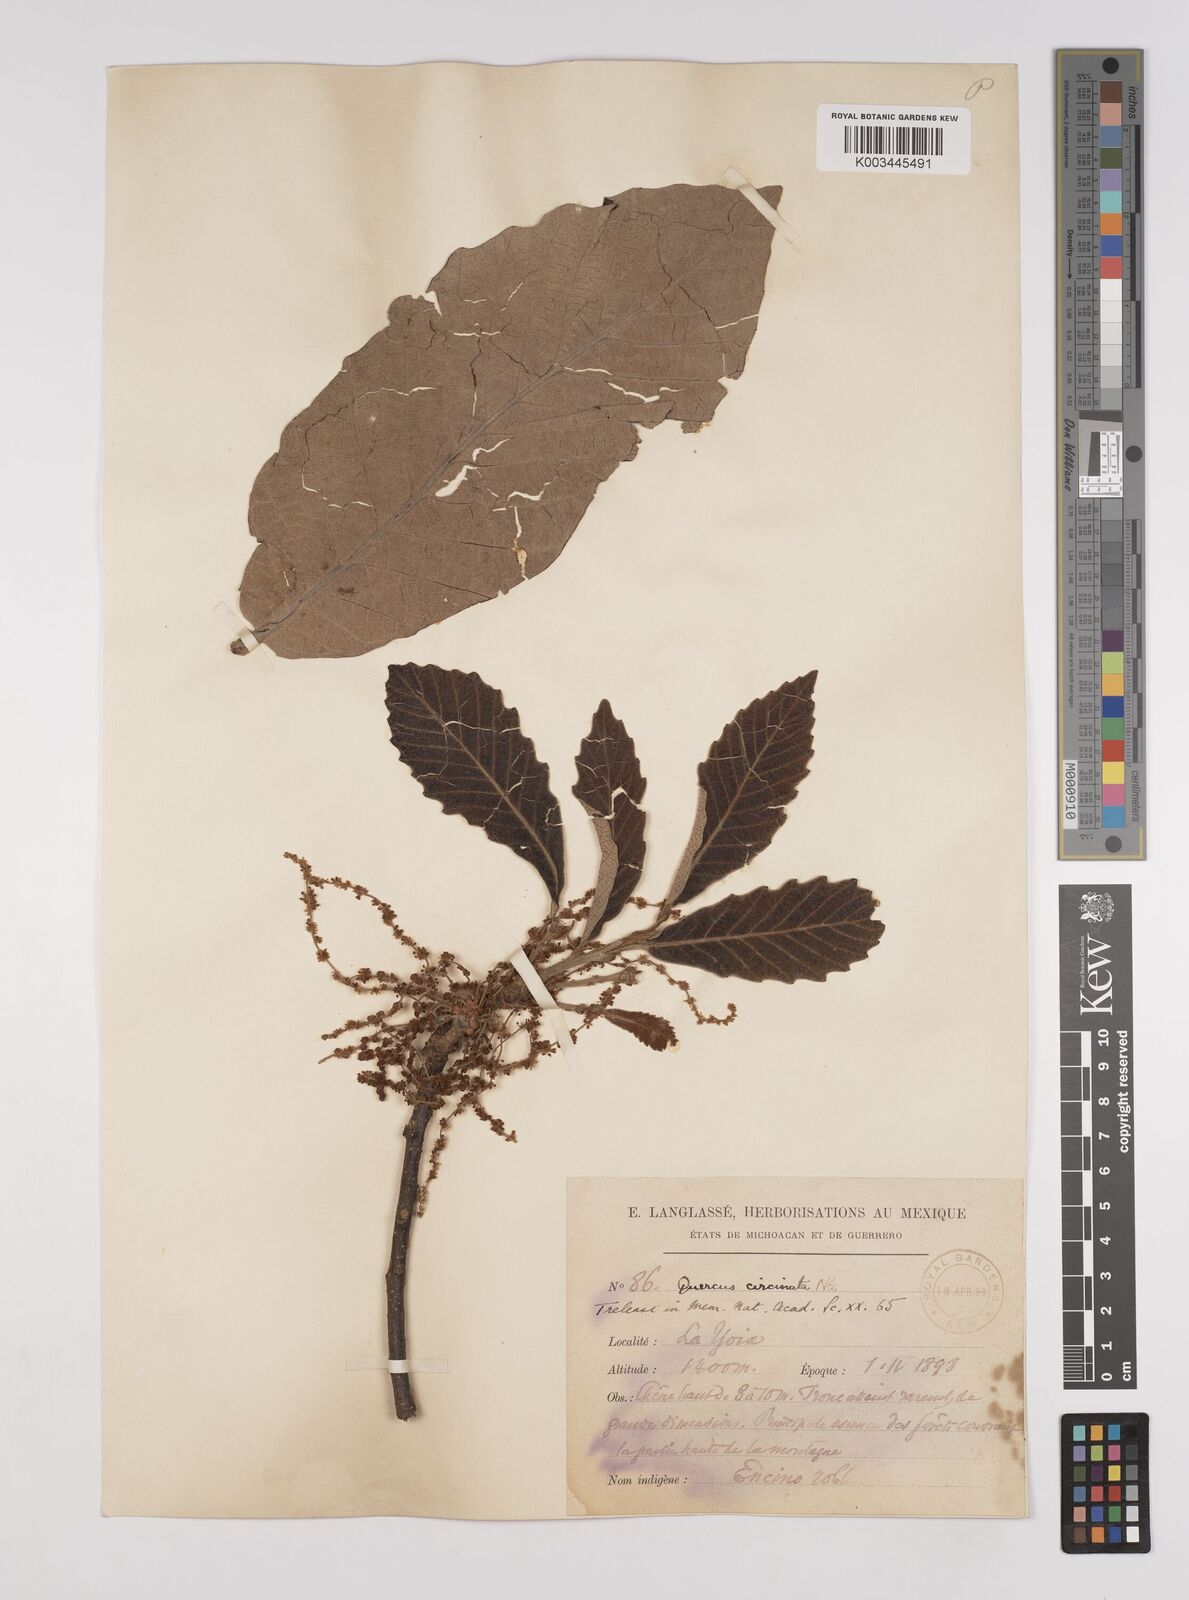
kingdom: Plantae
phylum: Tracheophyta
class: Magnoliopsida
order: Fagales
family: Fagaceae
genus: Quercus
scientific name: Quercus magnoliifolia
